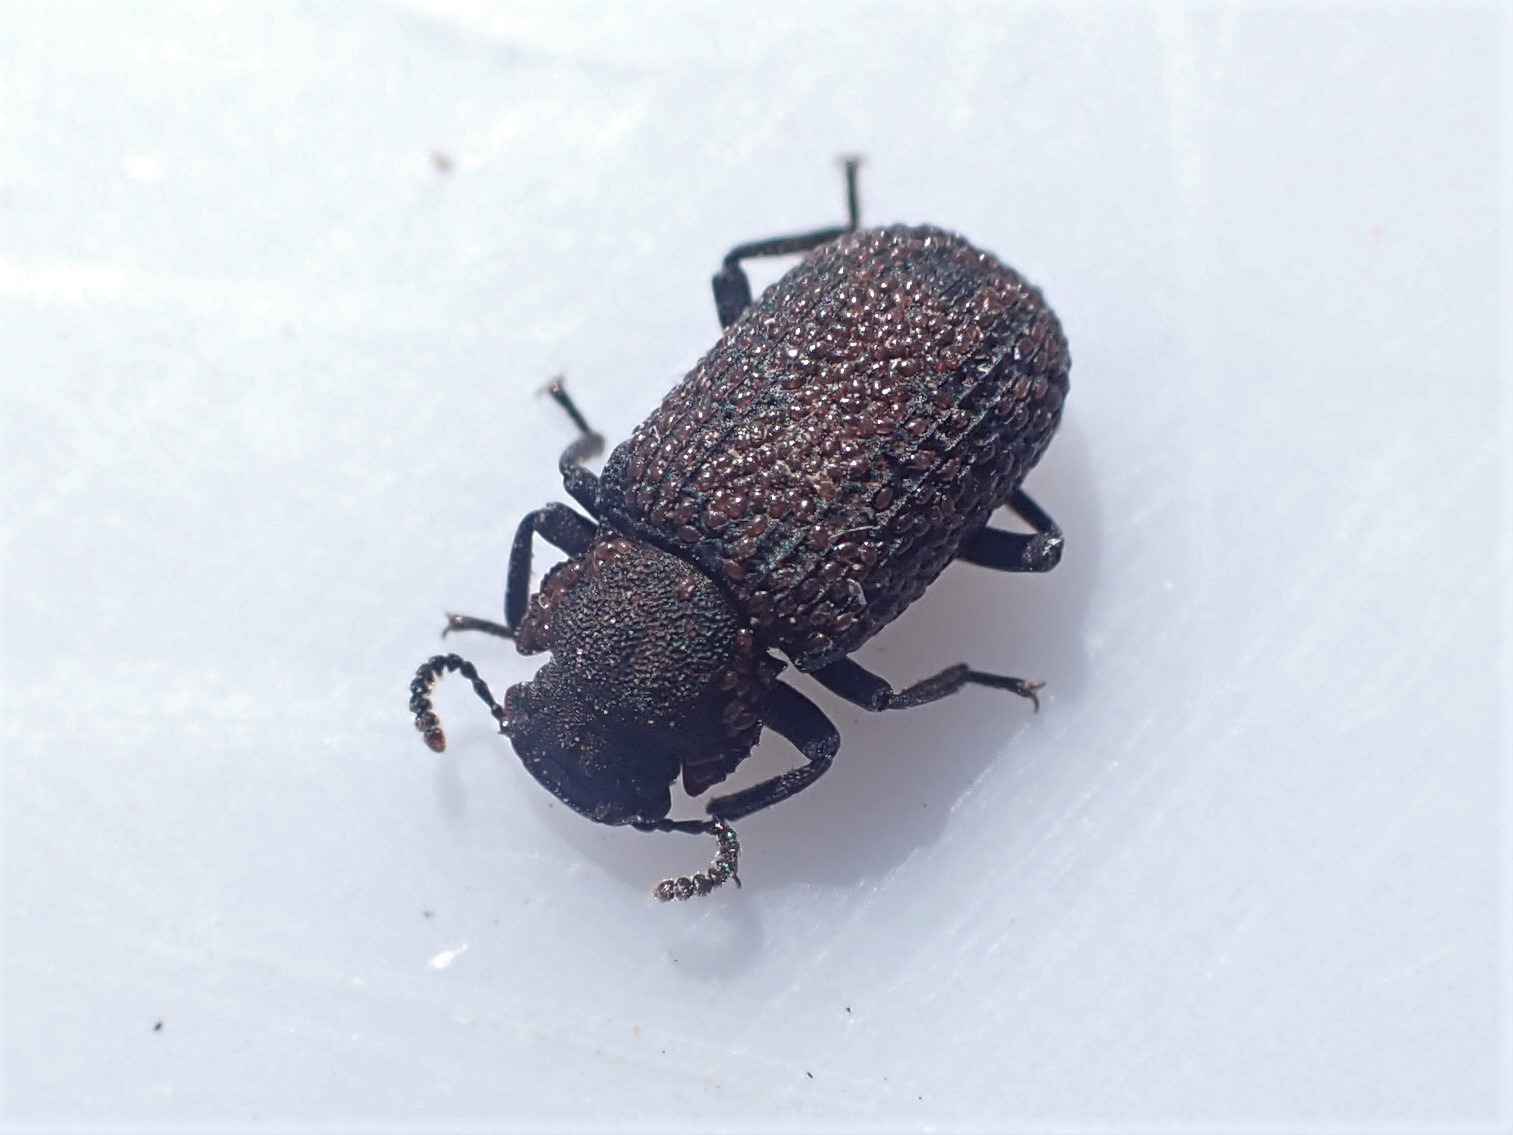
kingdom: Animalia
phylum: Arthropoda
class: Insecta
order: Coleoptera
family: Tenebrionidae
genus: Bolitophagus
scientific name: Bolitophagus reticulatus
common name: Netskyggebille
